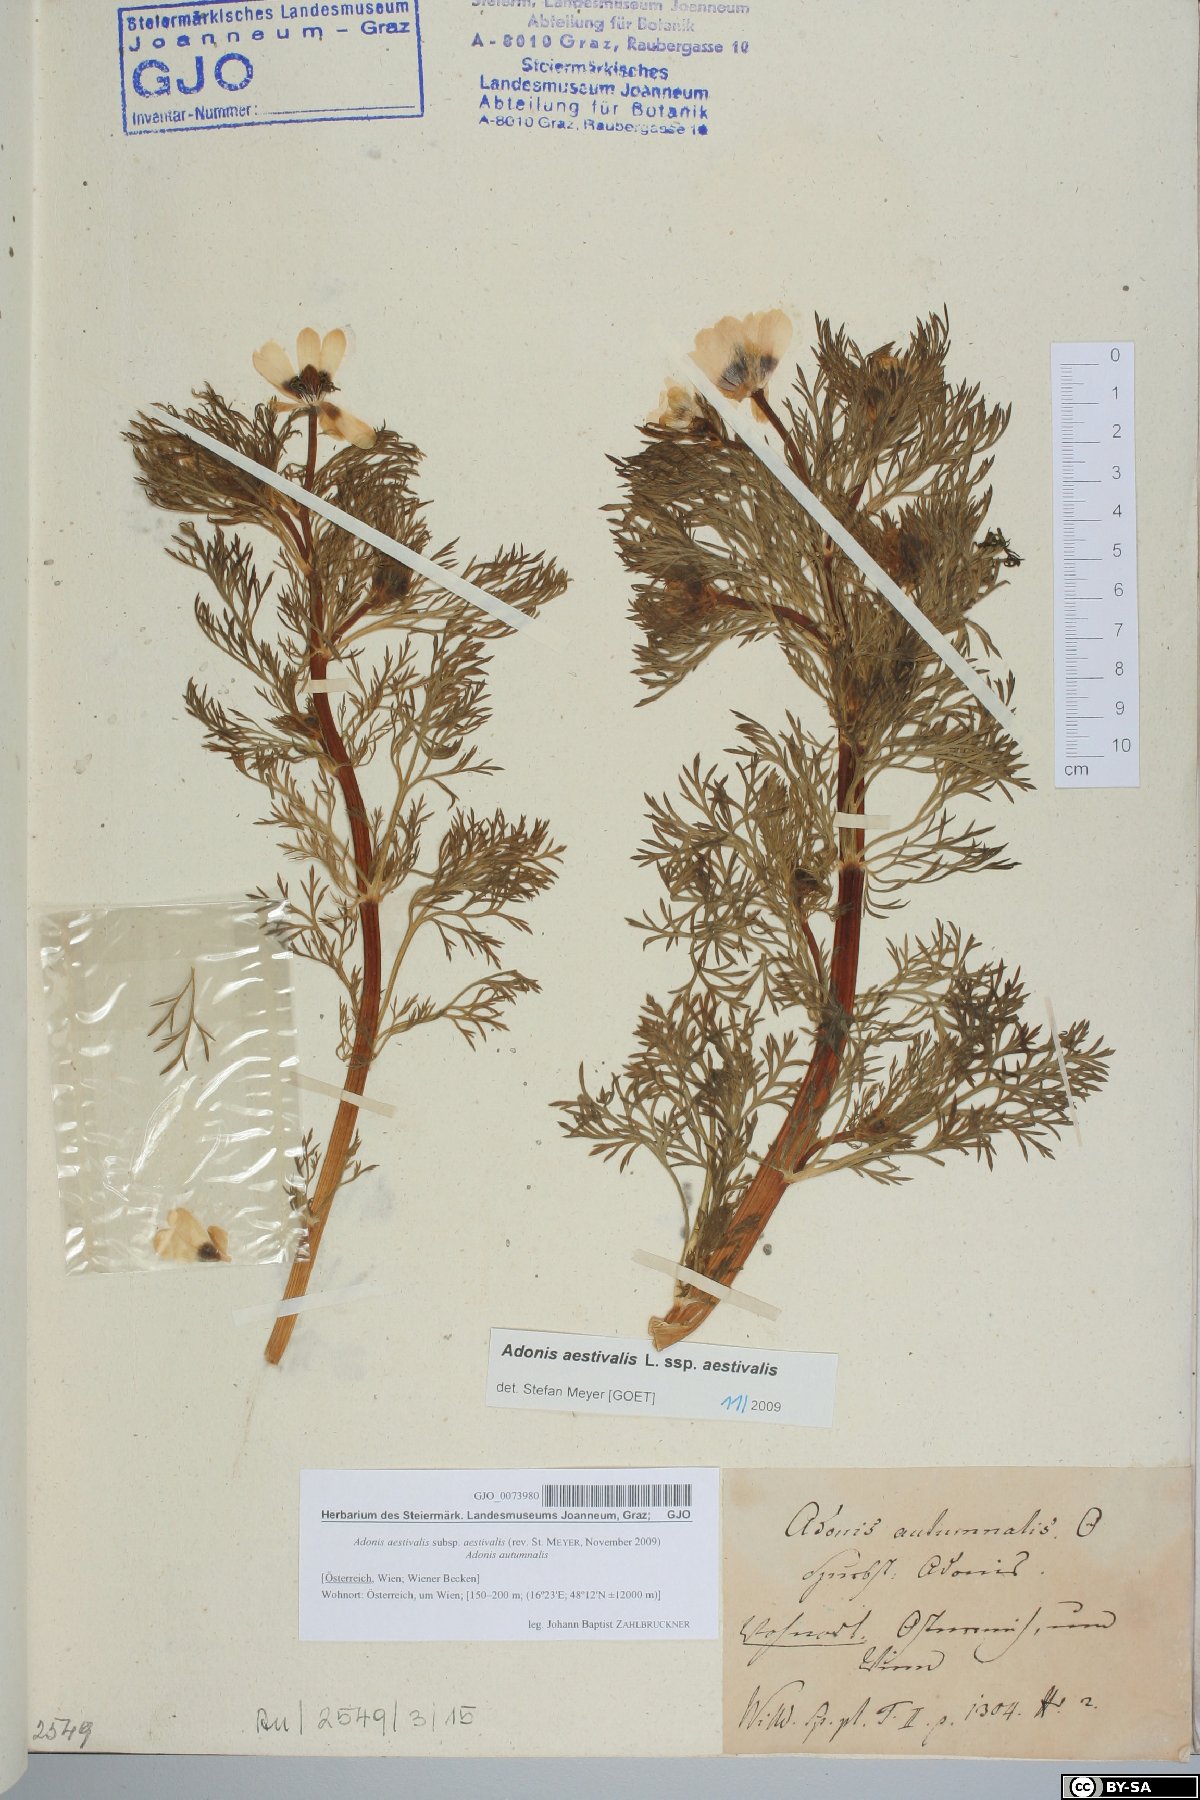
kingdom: Plantae
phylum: Tracheophyta
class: Magnoliopsida
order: Ranunculales
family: Ranunculaceae
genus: Adonis
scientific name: Adonis aestivalis
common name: Summer pheasant's-eye
